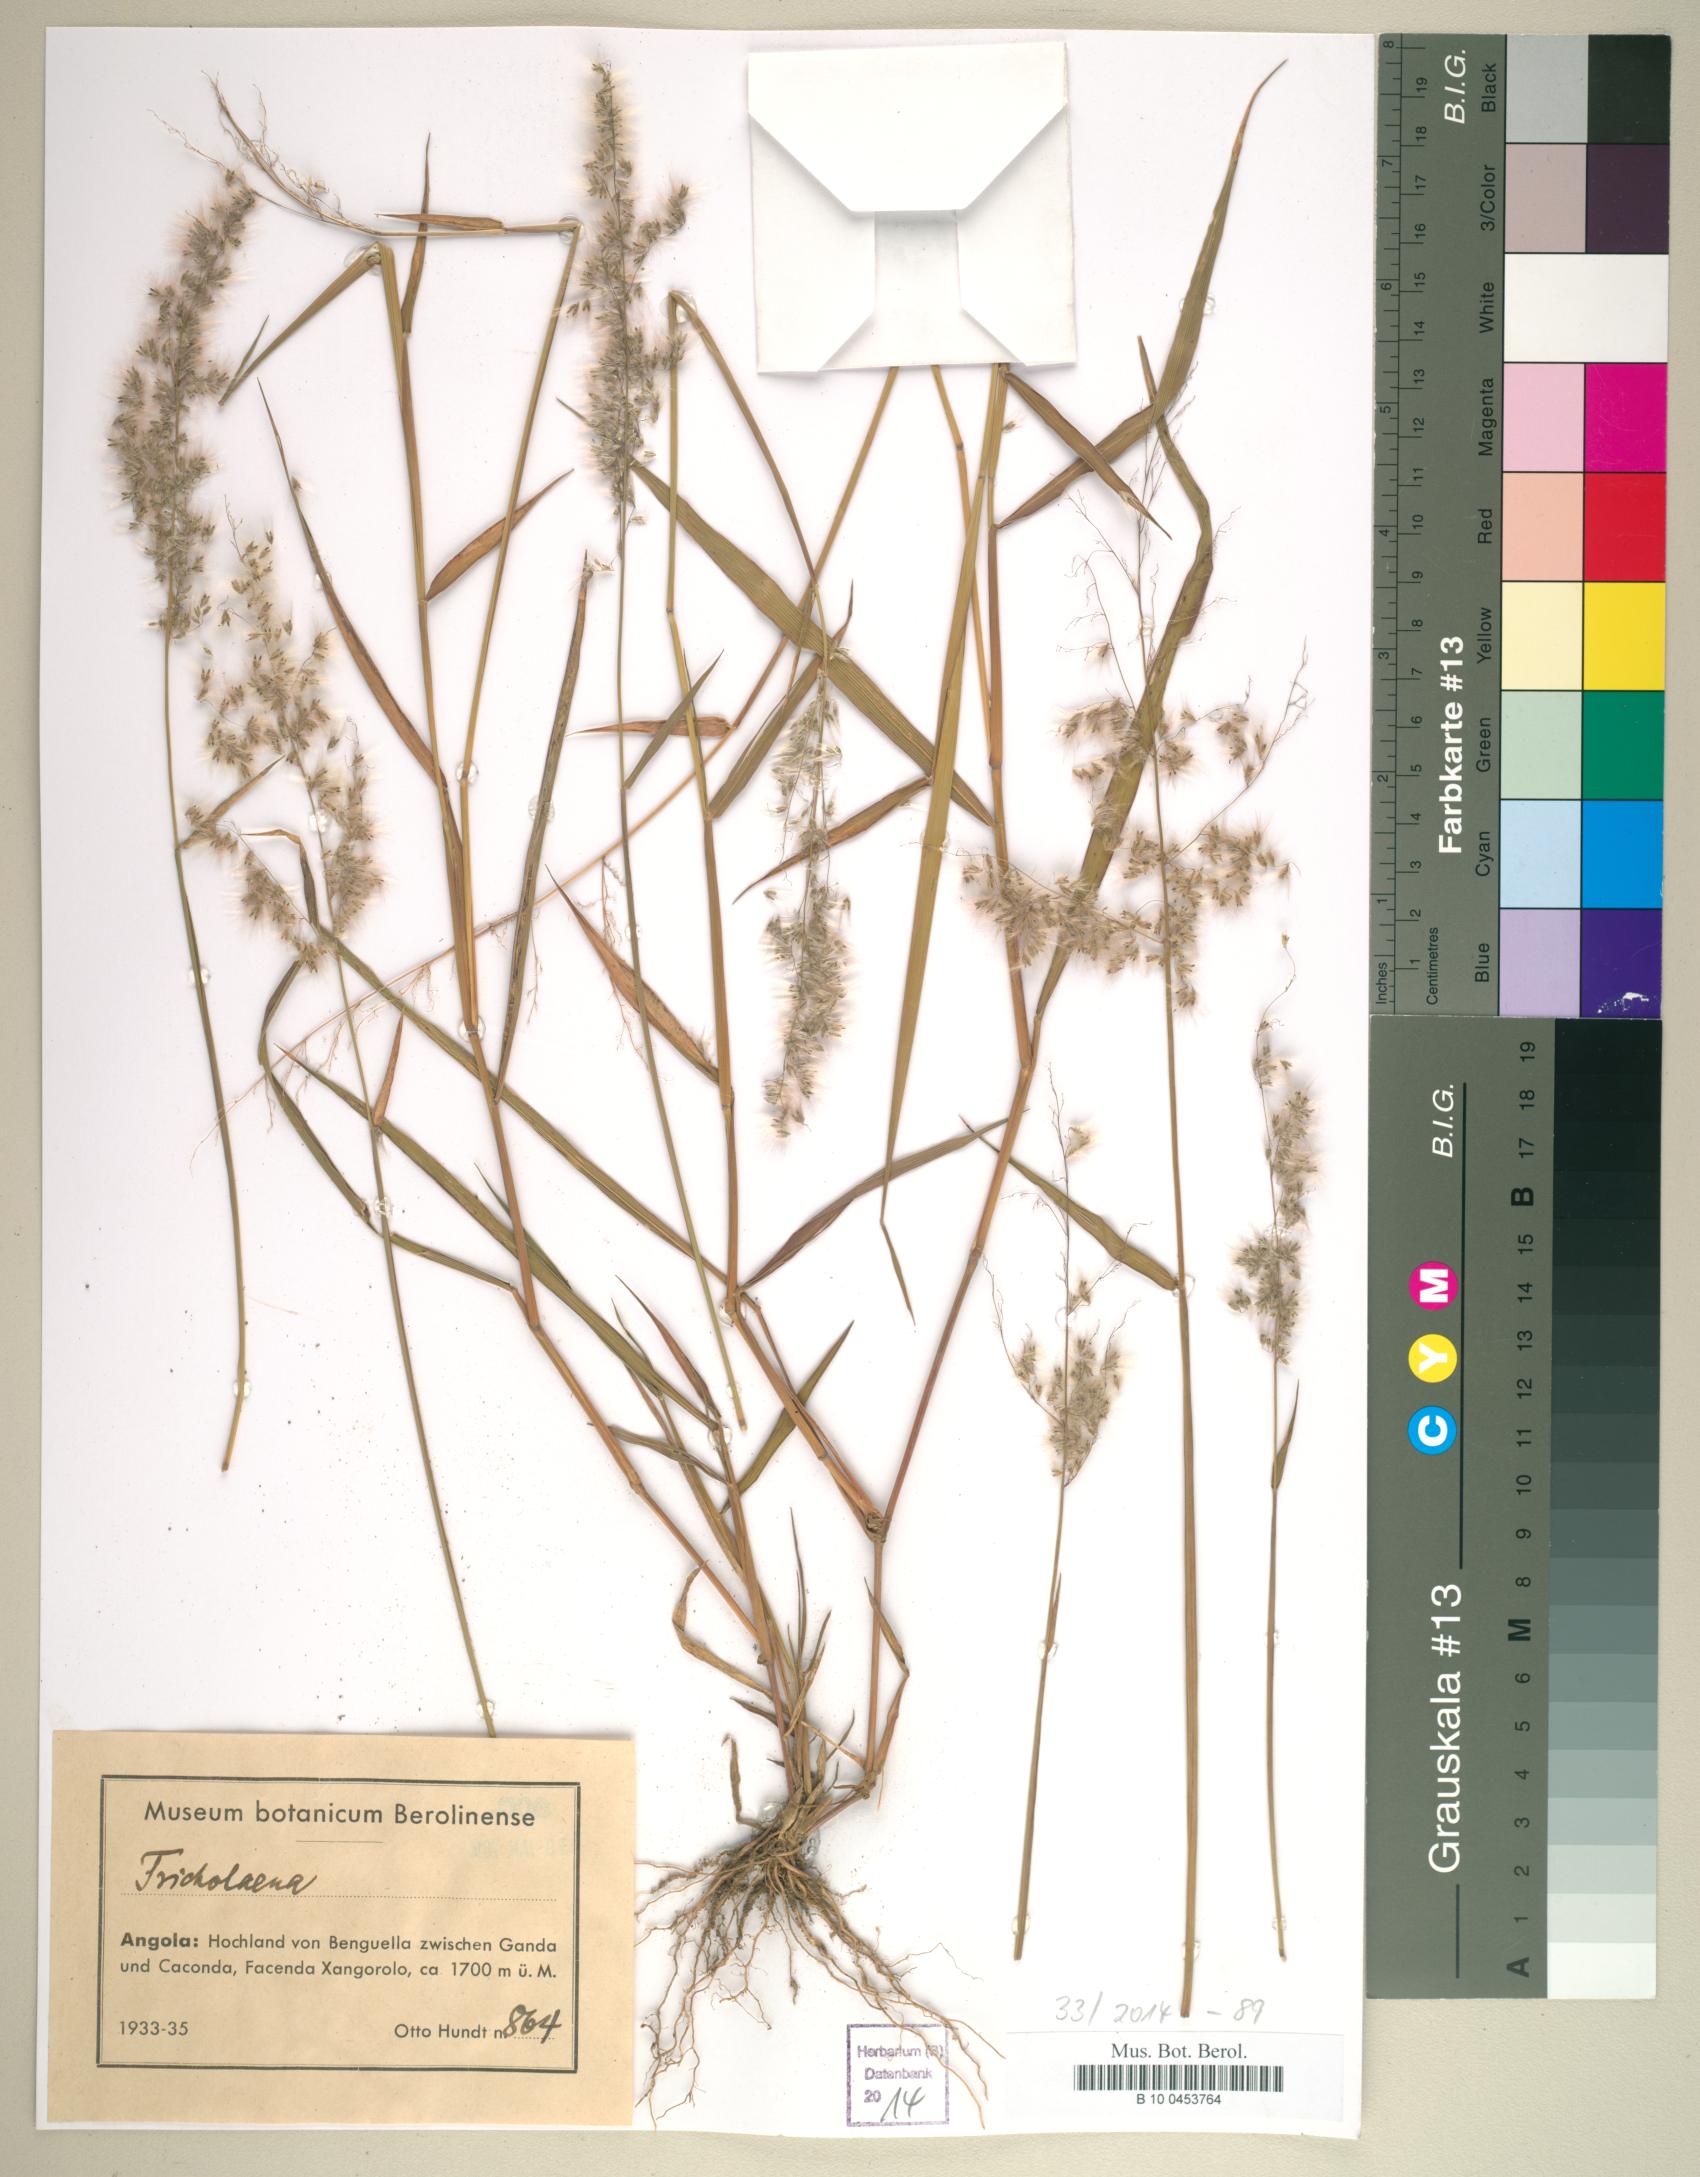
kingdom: Plantae
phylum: Tracheophyta
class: Liliopsida
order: Poales
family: Poaceae
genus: Tricholaena
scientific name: Tricholaena
